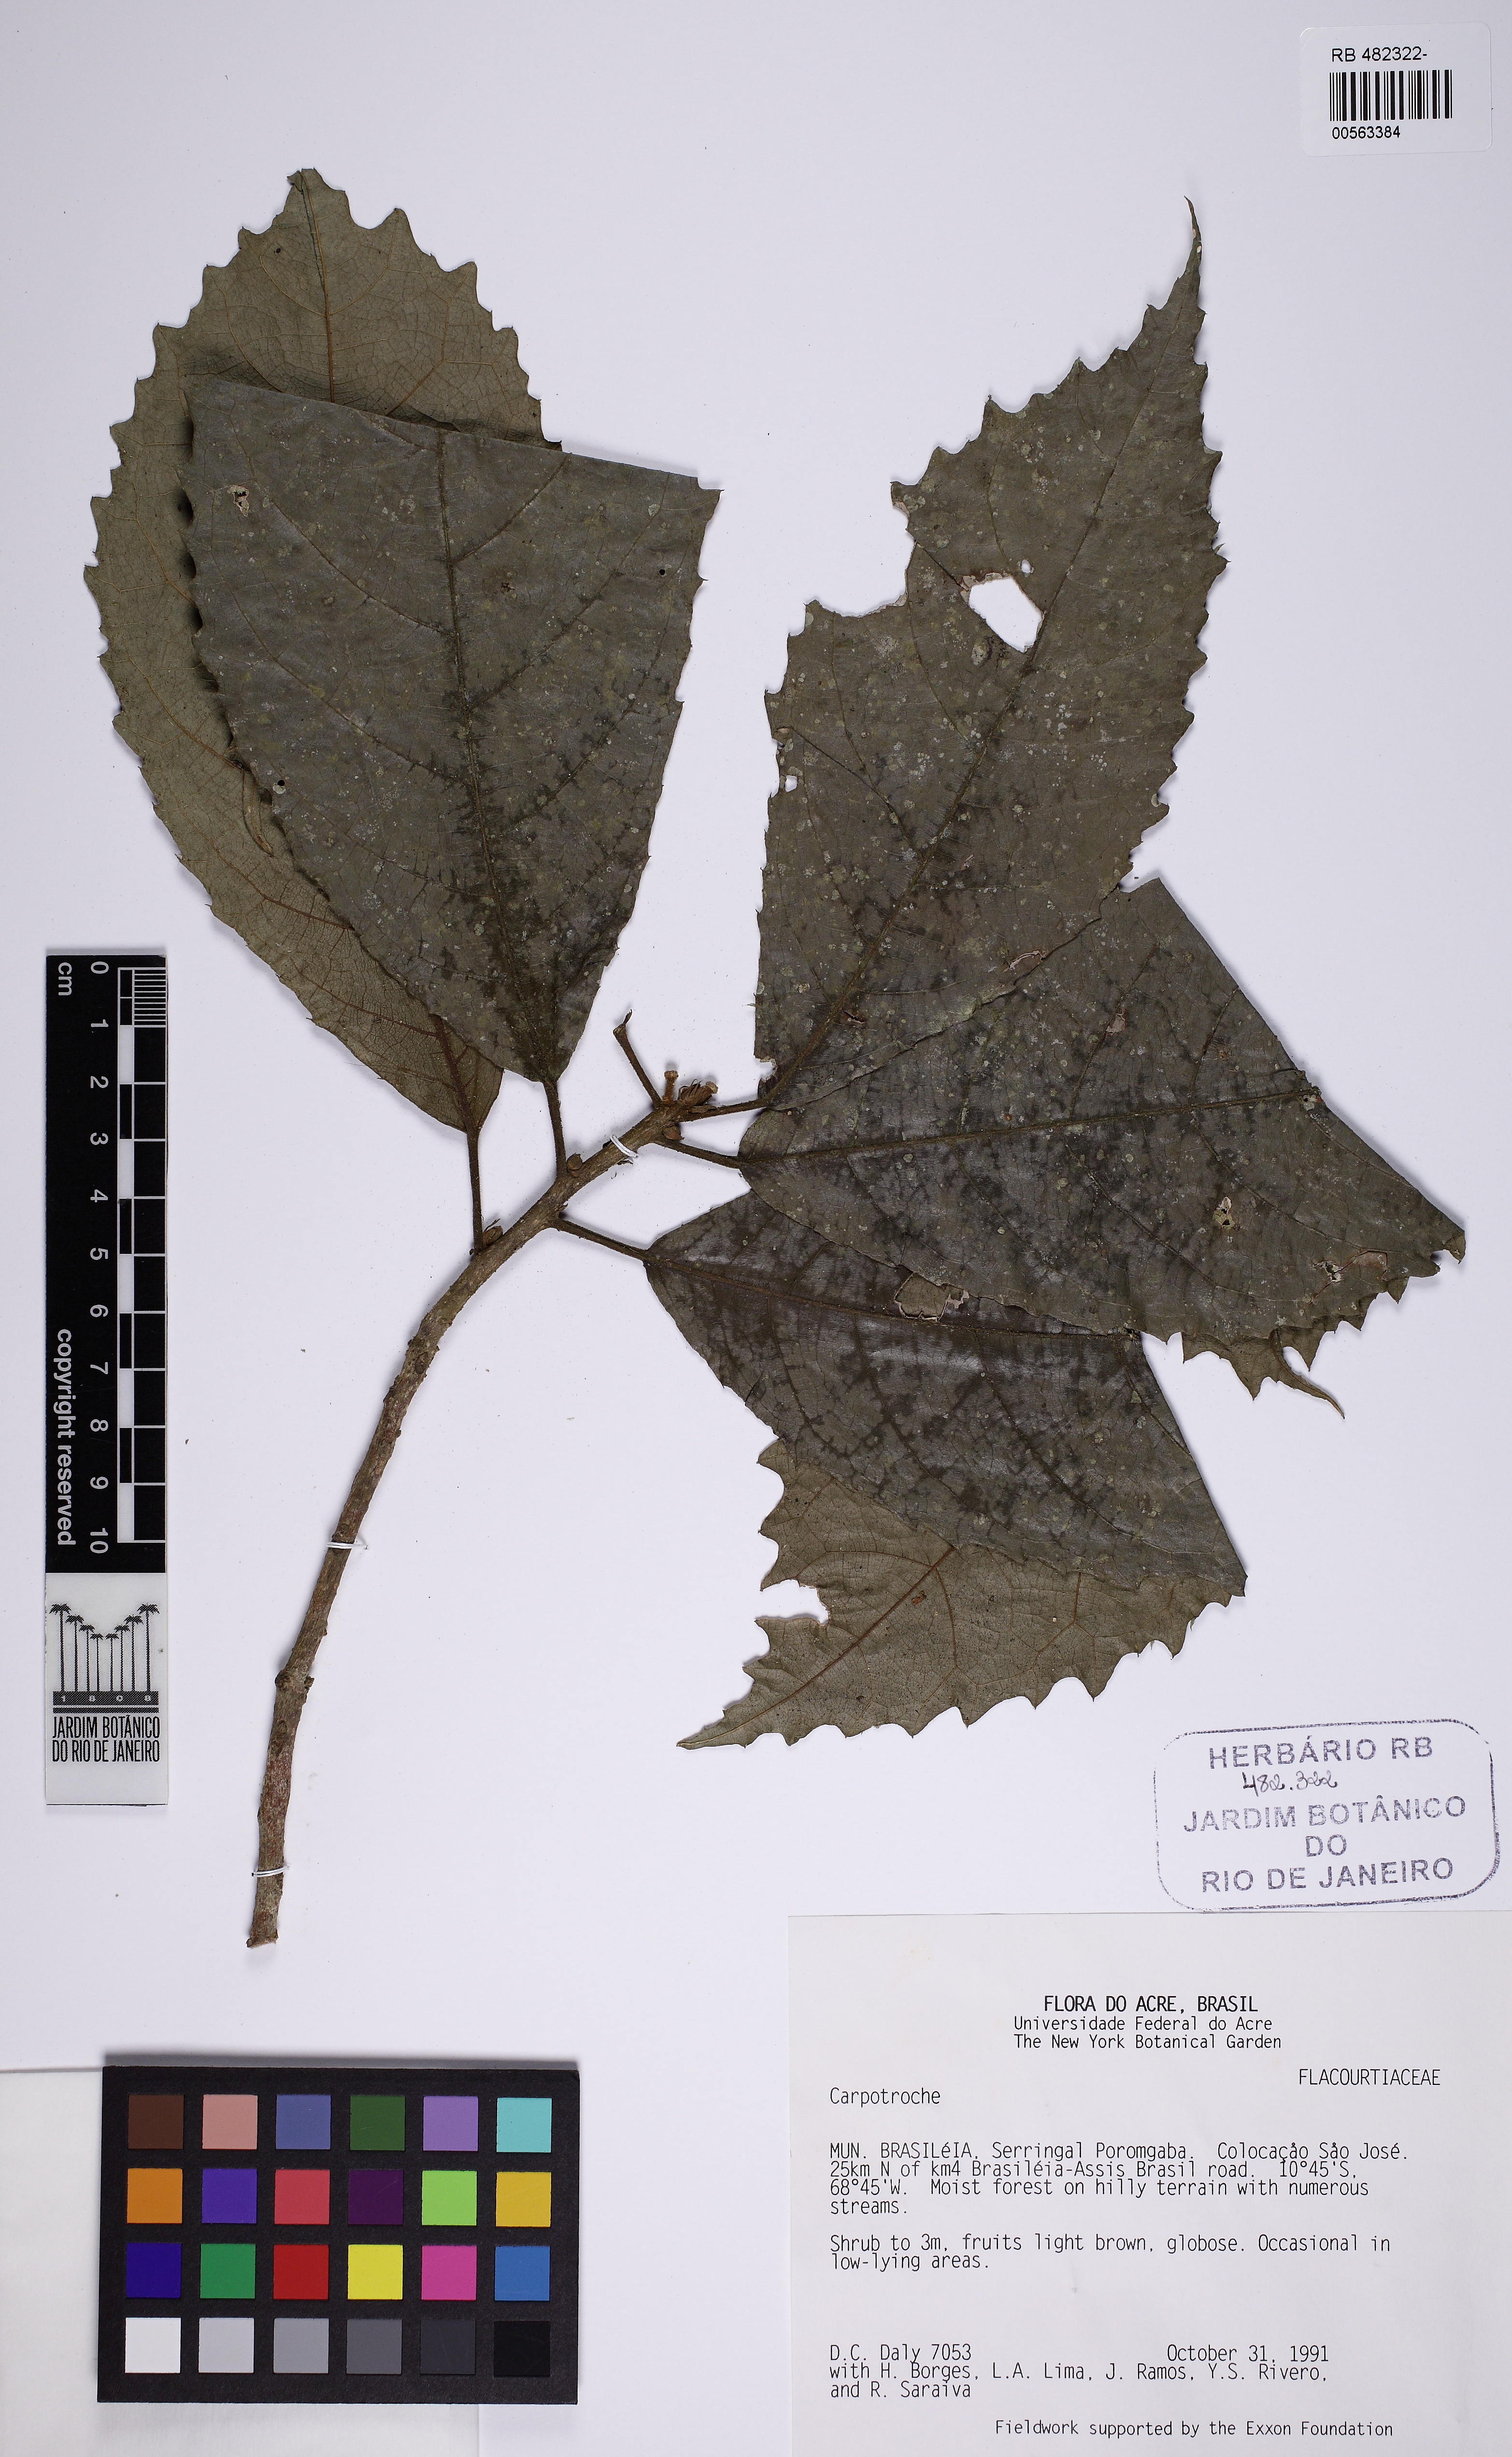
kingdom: Plantae
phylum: Tracheophyta
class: Magnoliopsida
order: Malpighiales
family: Achariaceae
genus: Carpotroche
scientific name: Carpotroche
